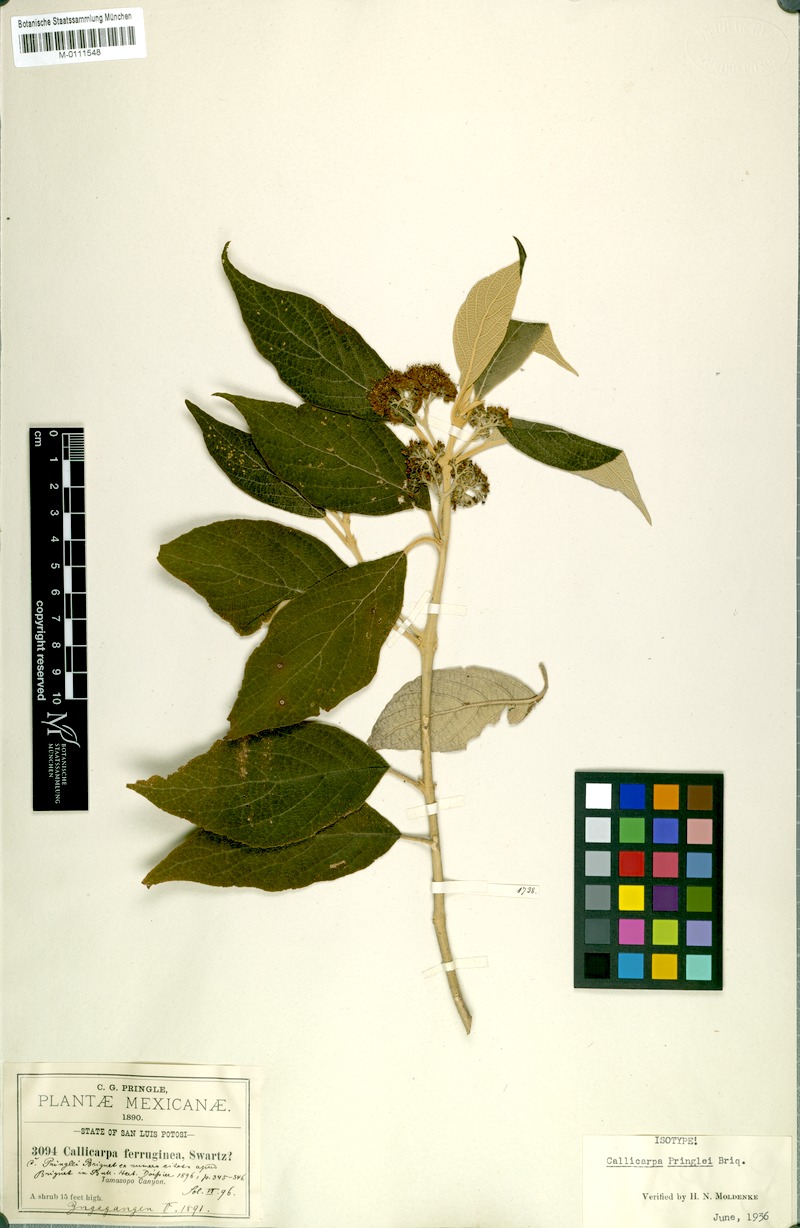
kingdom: Plantae
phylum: Tracheophyta
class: Magnoliopsida
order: Lamiales
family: Lamiaceae
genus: Callicarpa
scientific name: Callicarpa acuminata
